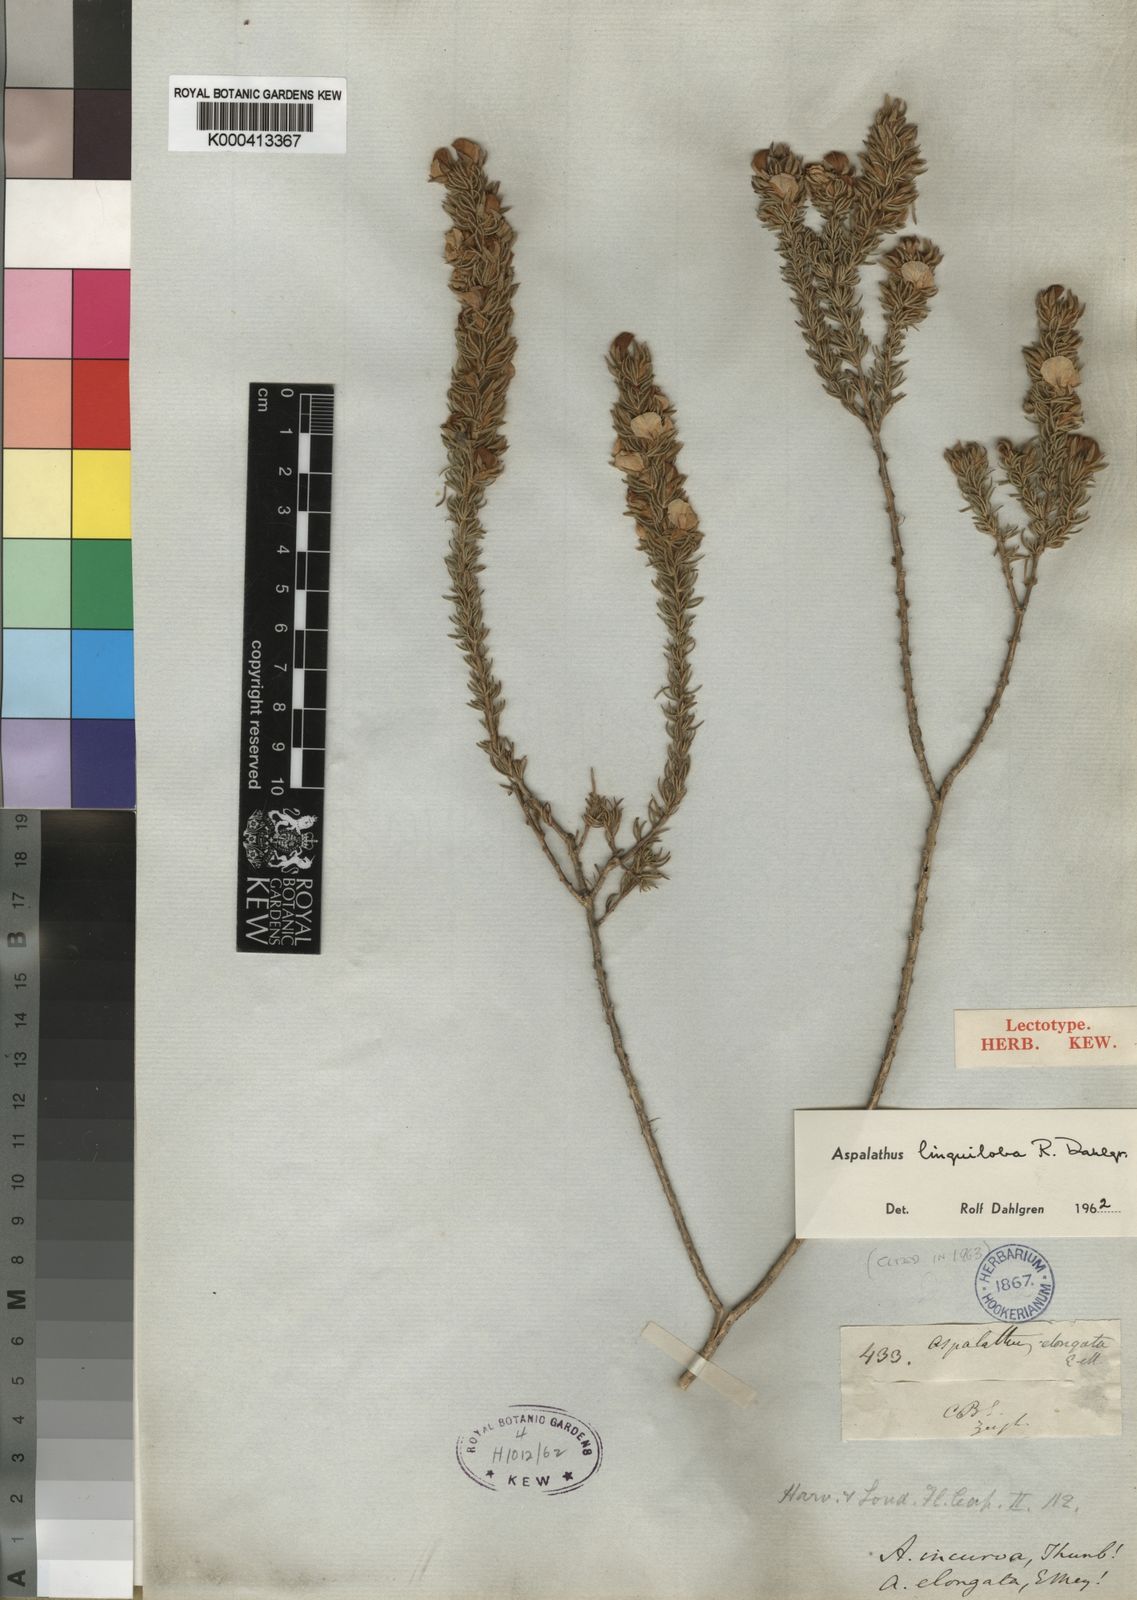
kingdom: Plantae
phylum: Tracheophyta
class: Magnoliopsida
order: Fabales
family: Fabaceae
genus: Aspalathus
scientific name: Aspalathus linguiloba
